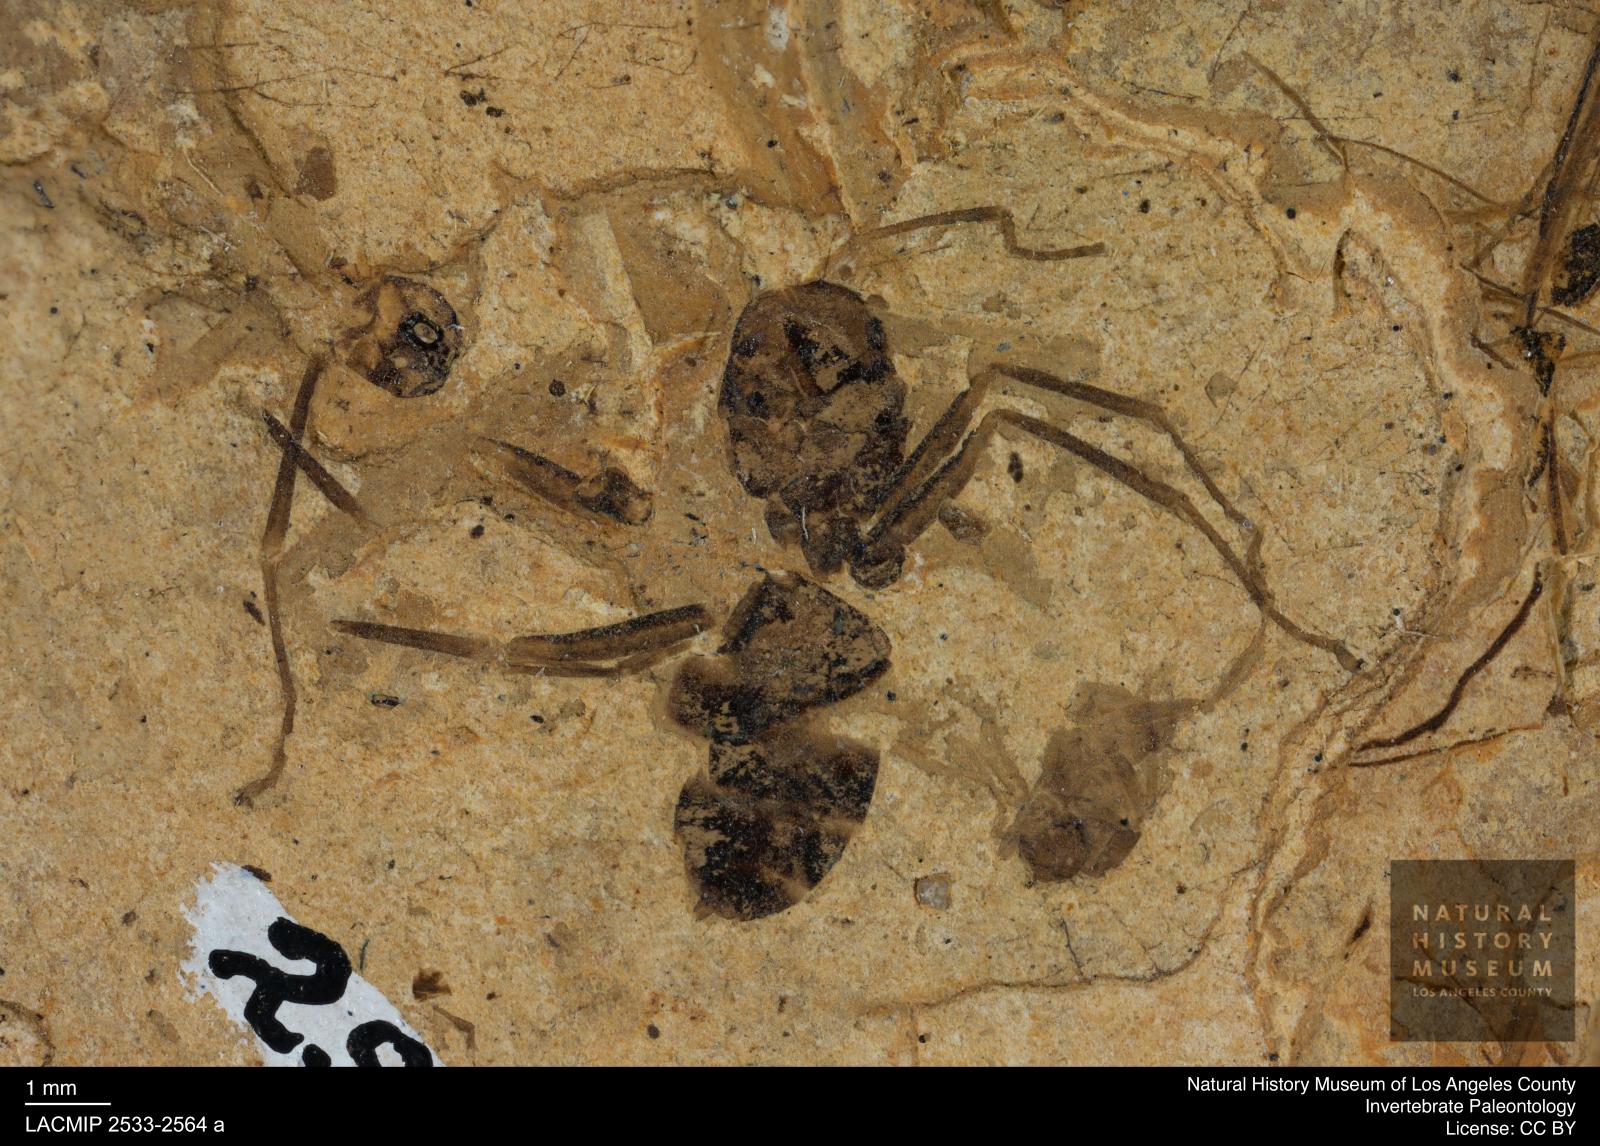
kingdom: Animalia
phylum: Arthropoda
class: Insecta
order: Hymenoptera
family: Formicidae
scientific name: Formicidae
